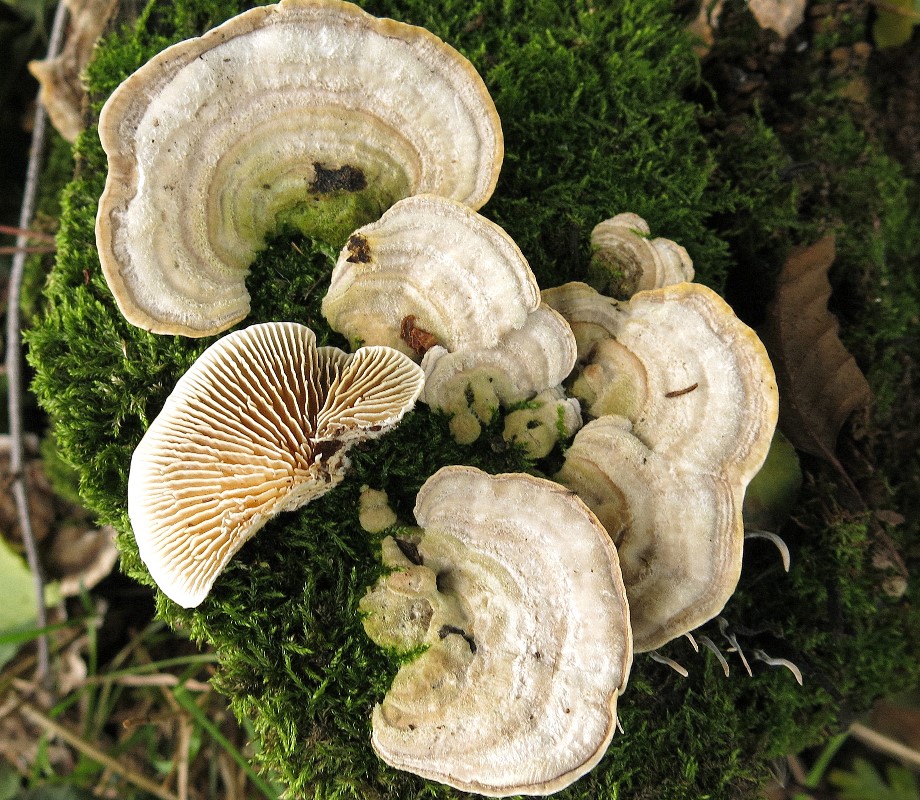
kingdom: Fungi
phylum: Basidiomycota
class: Agaricomycetes
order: Polyporales
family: Polyporaceae
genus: Lenzites
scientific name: Lenzites betulinus
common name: birke-læderporesvamp
